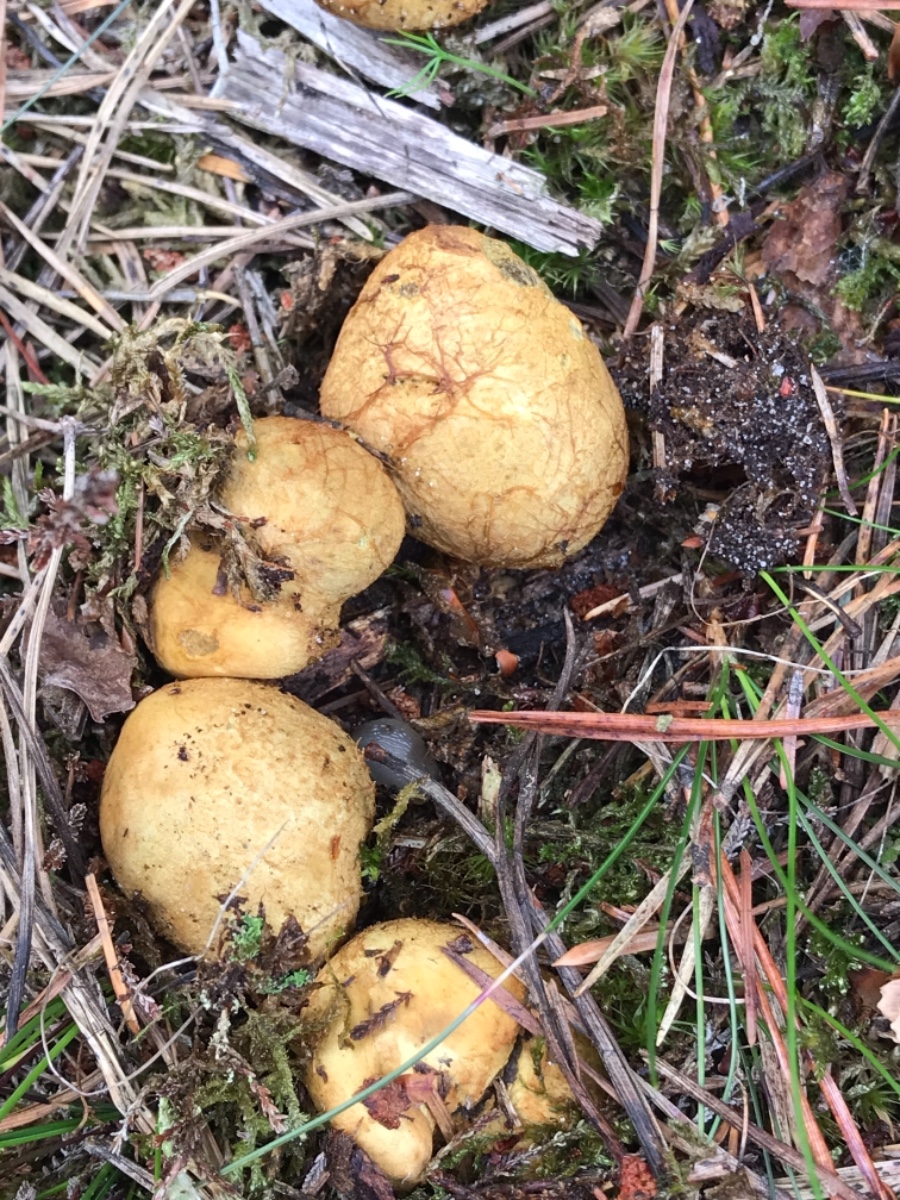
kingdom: Fungi
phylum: Basidiomycota
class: Agaricomycetes
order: Boletales
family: Rhizopogonaceae
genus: Rhizopogon
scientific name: Rhizopogon obtextus
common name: gul skægtrøffel
